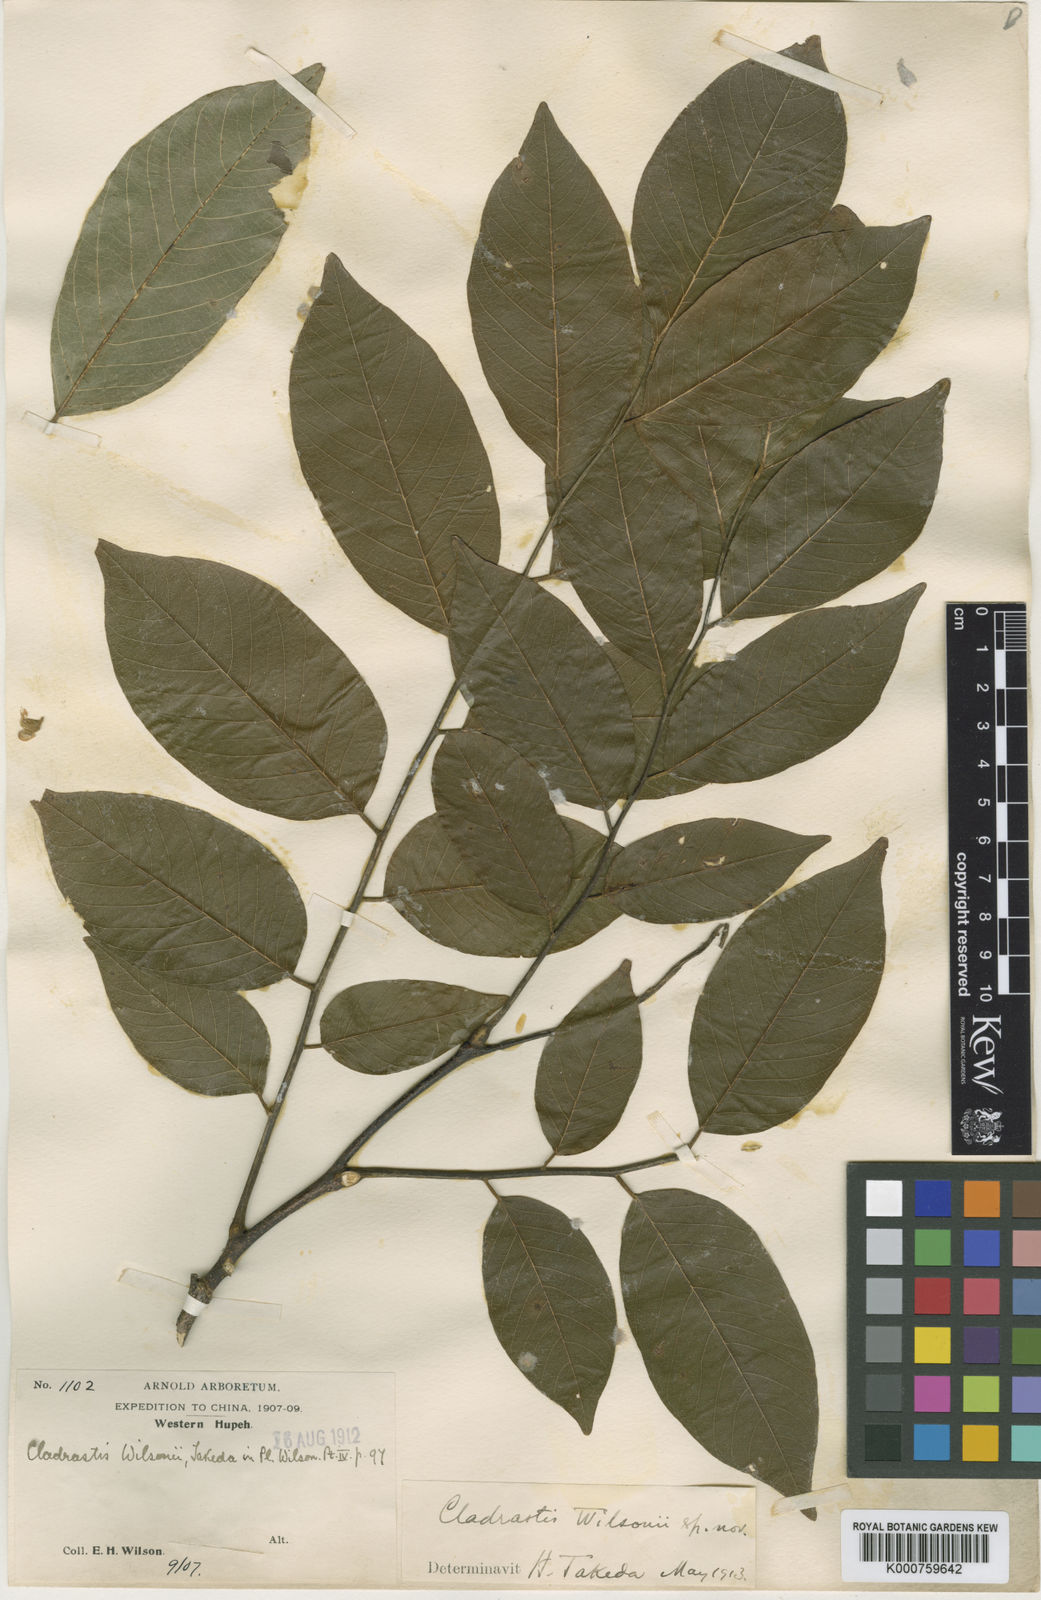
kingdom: Plantae
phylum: Tracheophyta
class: Magnoliopsida
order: Fabales
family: Fabaceae
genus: Cladrastis
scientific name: Cladrastis wilsonii
